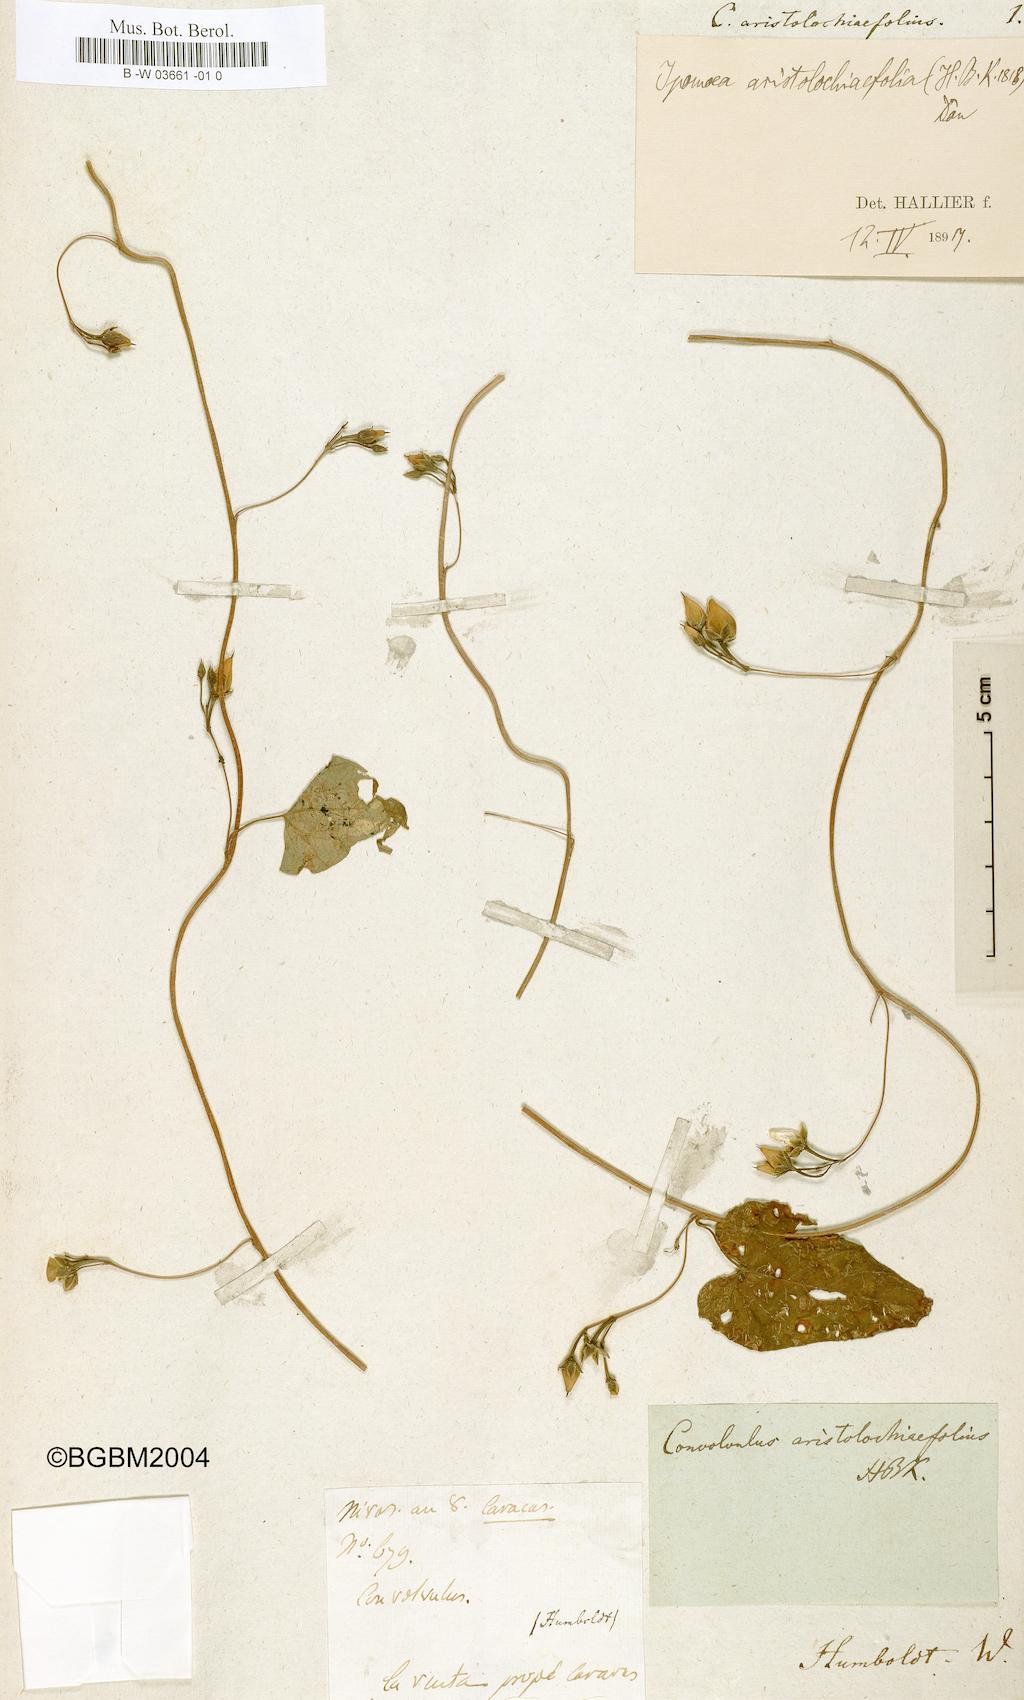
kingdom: Plantae
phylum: Tracheophyta
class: Magnoliopsida
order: Solanales
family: Convolvulaceae
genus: Ipomoea
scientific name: Ipomoea aristolochiifolia
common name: Aristolochia-leaved morning-glory
